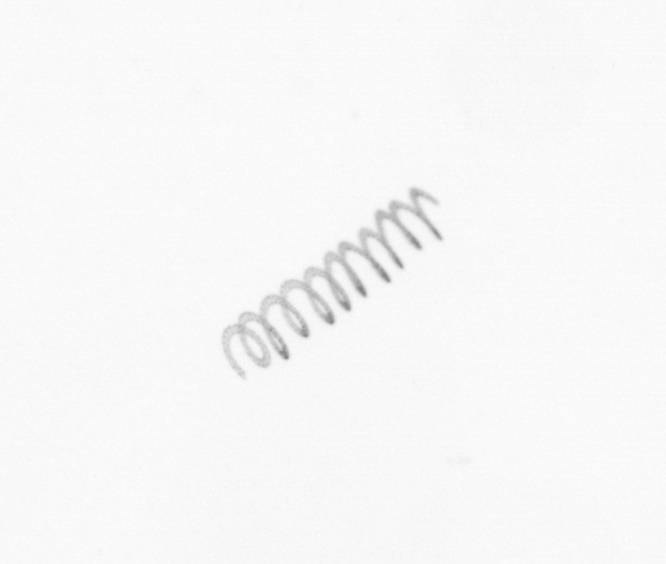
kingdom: Chromista
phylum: Ochrophyta
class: Bacillariophyceae
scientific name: Bacillariophyceae
